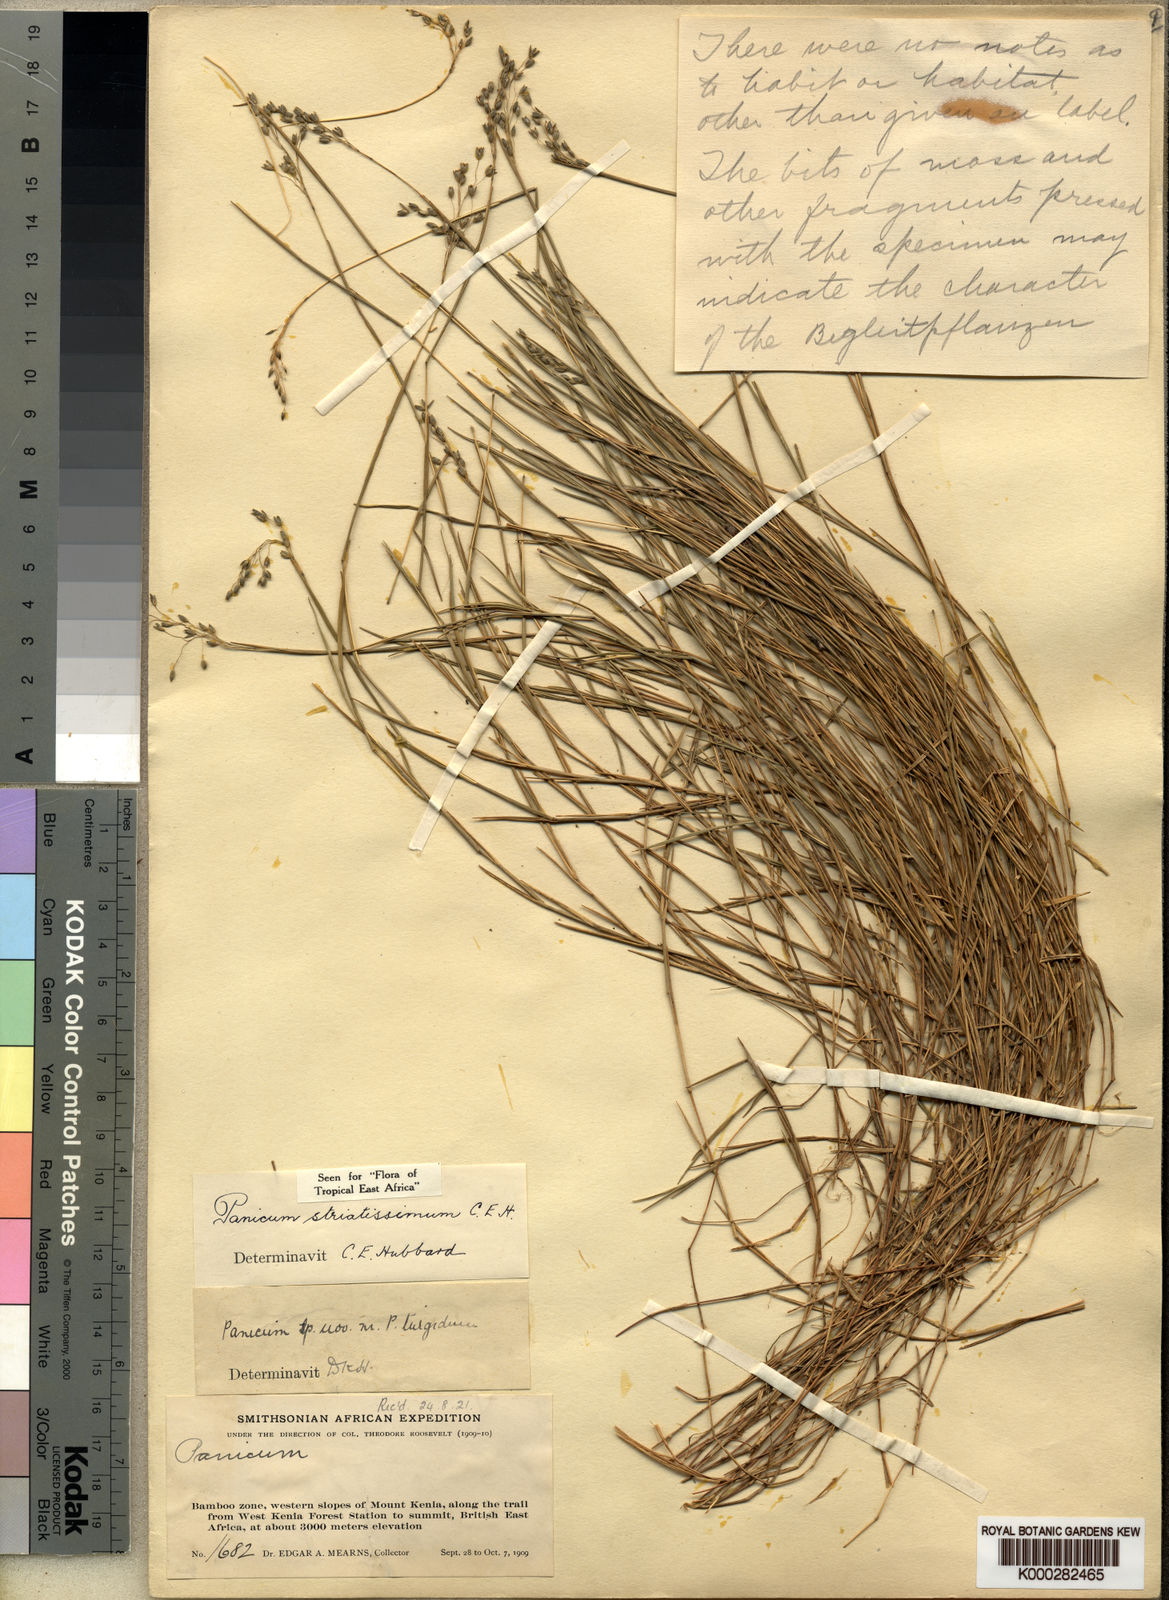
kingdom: Plantae
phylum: Tracheophyta
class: Liliopsida
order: Poales
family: Poaceae
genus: Panicum
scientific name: Panicum eickii
